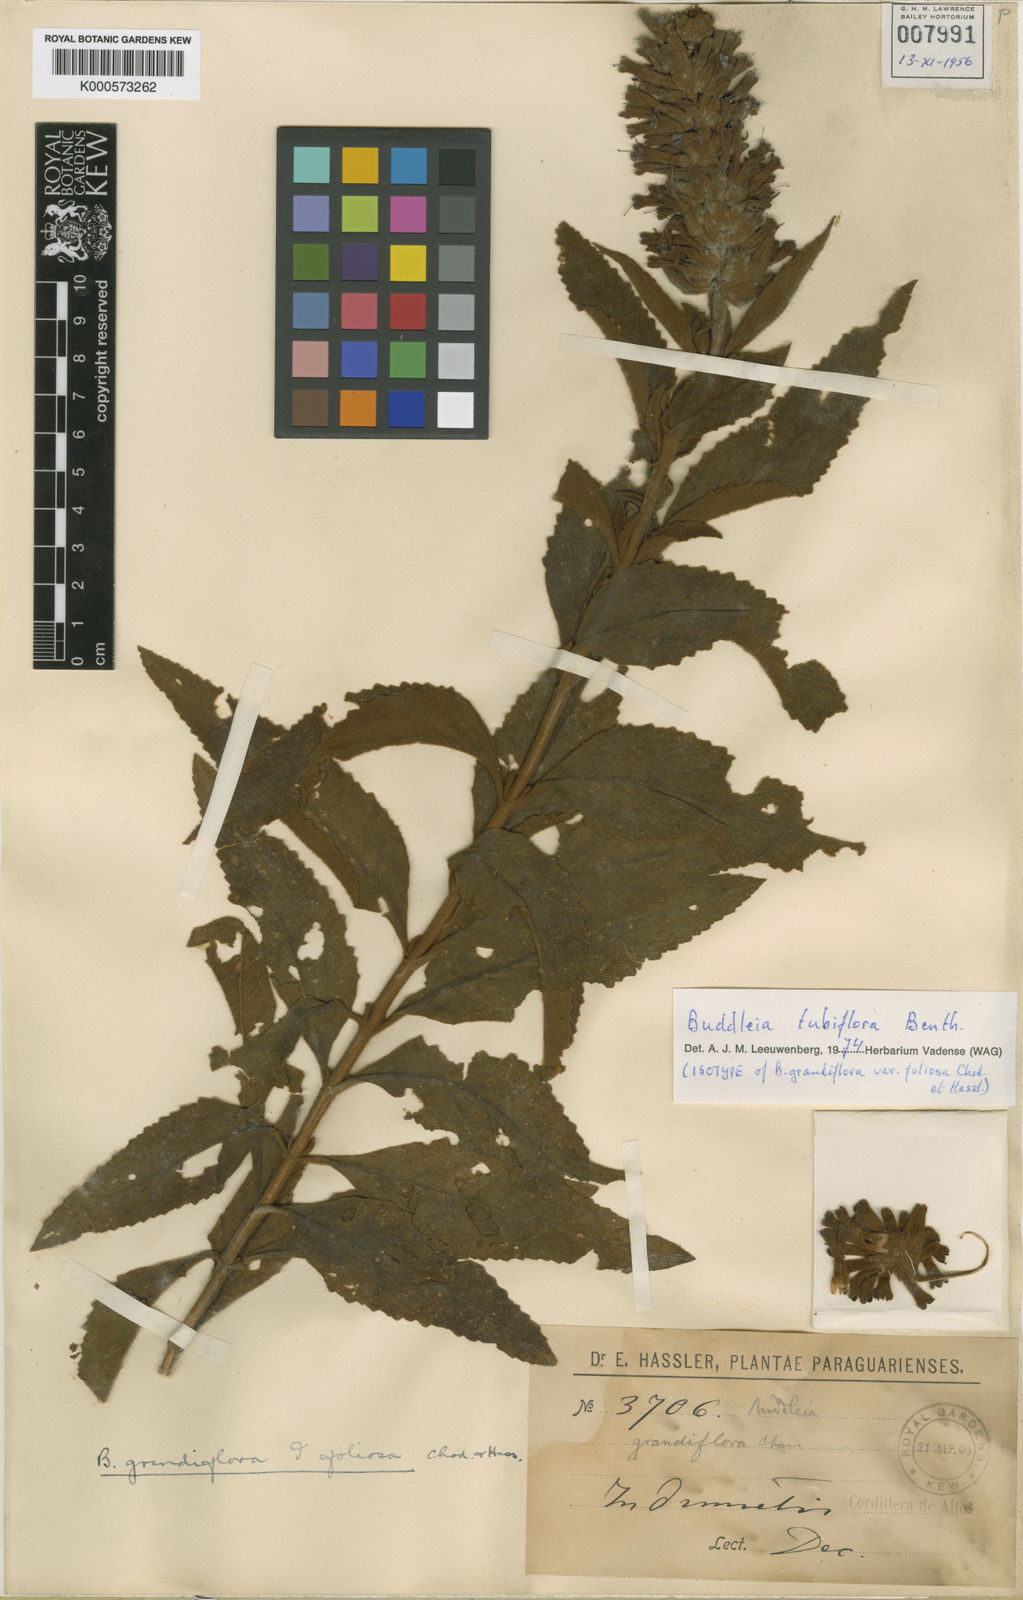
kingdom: Plantae
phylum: Tracheophyta
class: Magnoliopsida
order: Lamiales
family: Scrophulariaceae
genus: Buddleja
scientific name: Buddleja tubiflora
